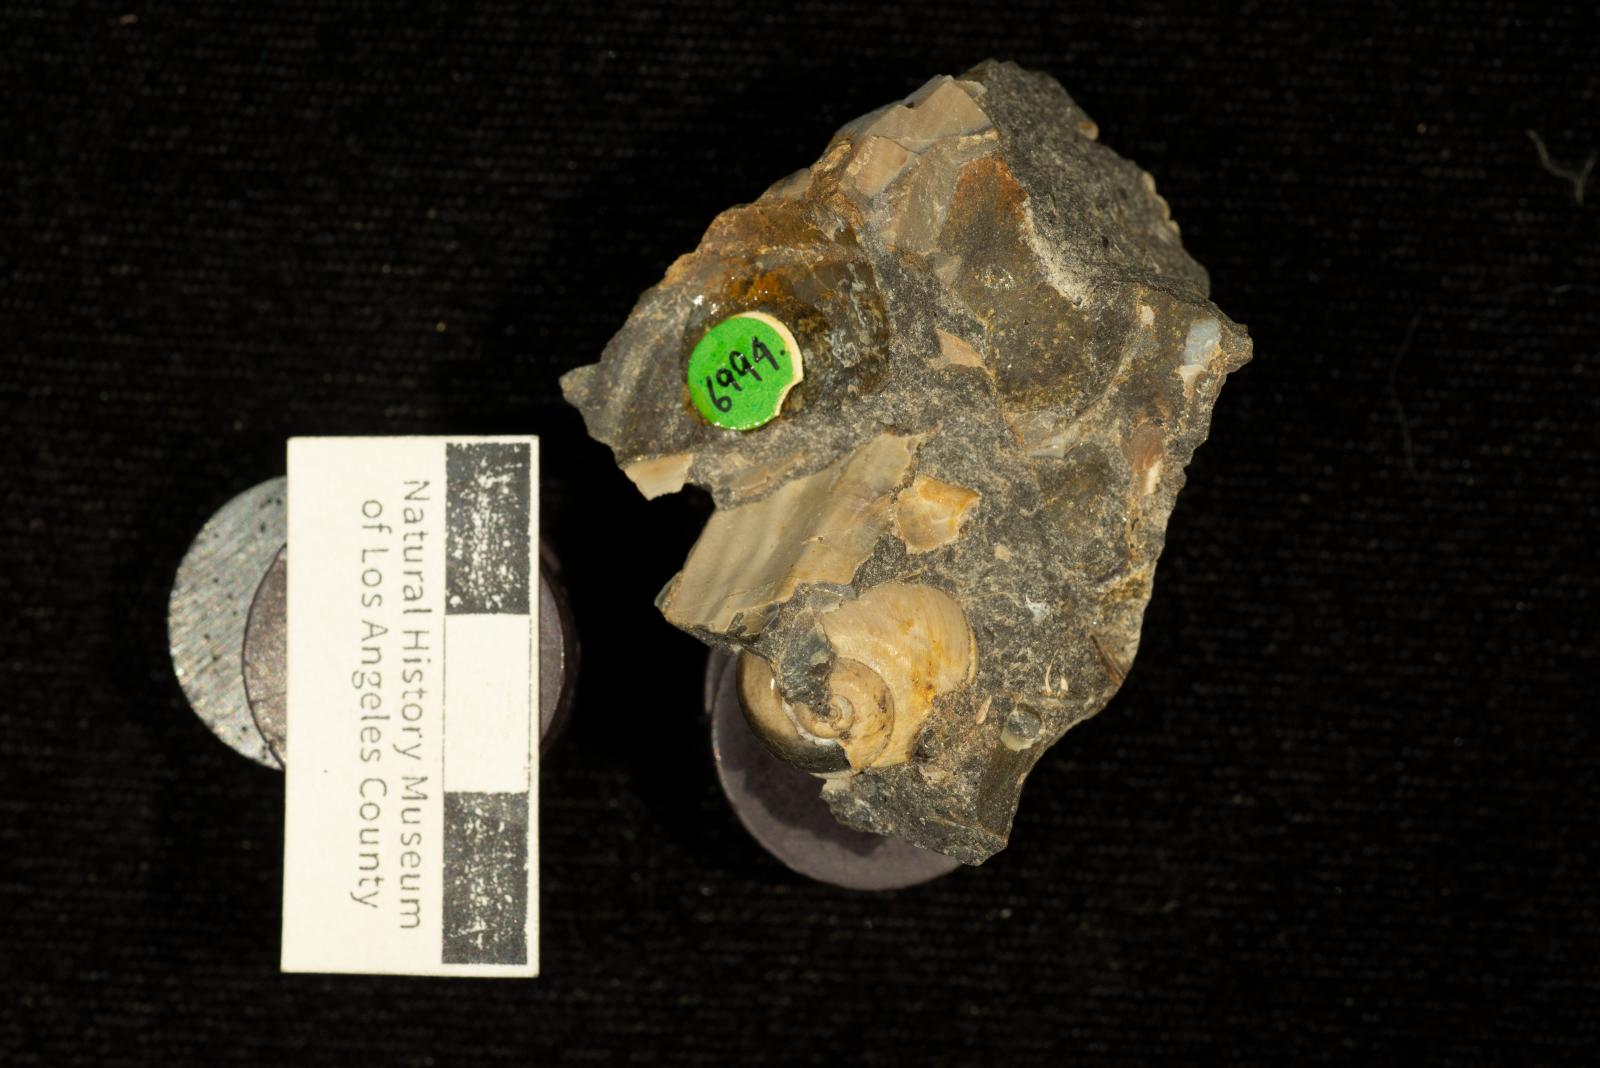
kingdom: Animalia
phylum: Mollusca
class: Gastropoda
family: Gyrodidae
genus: Gyrodes
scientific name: Gyrodes pacificus
